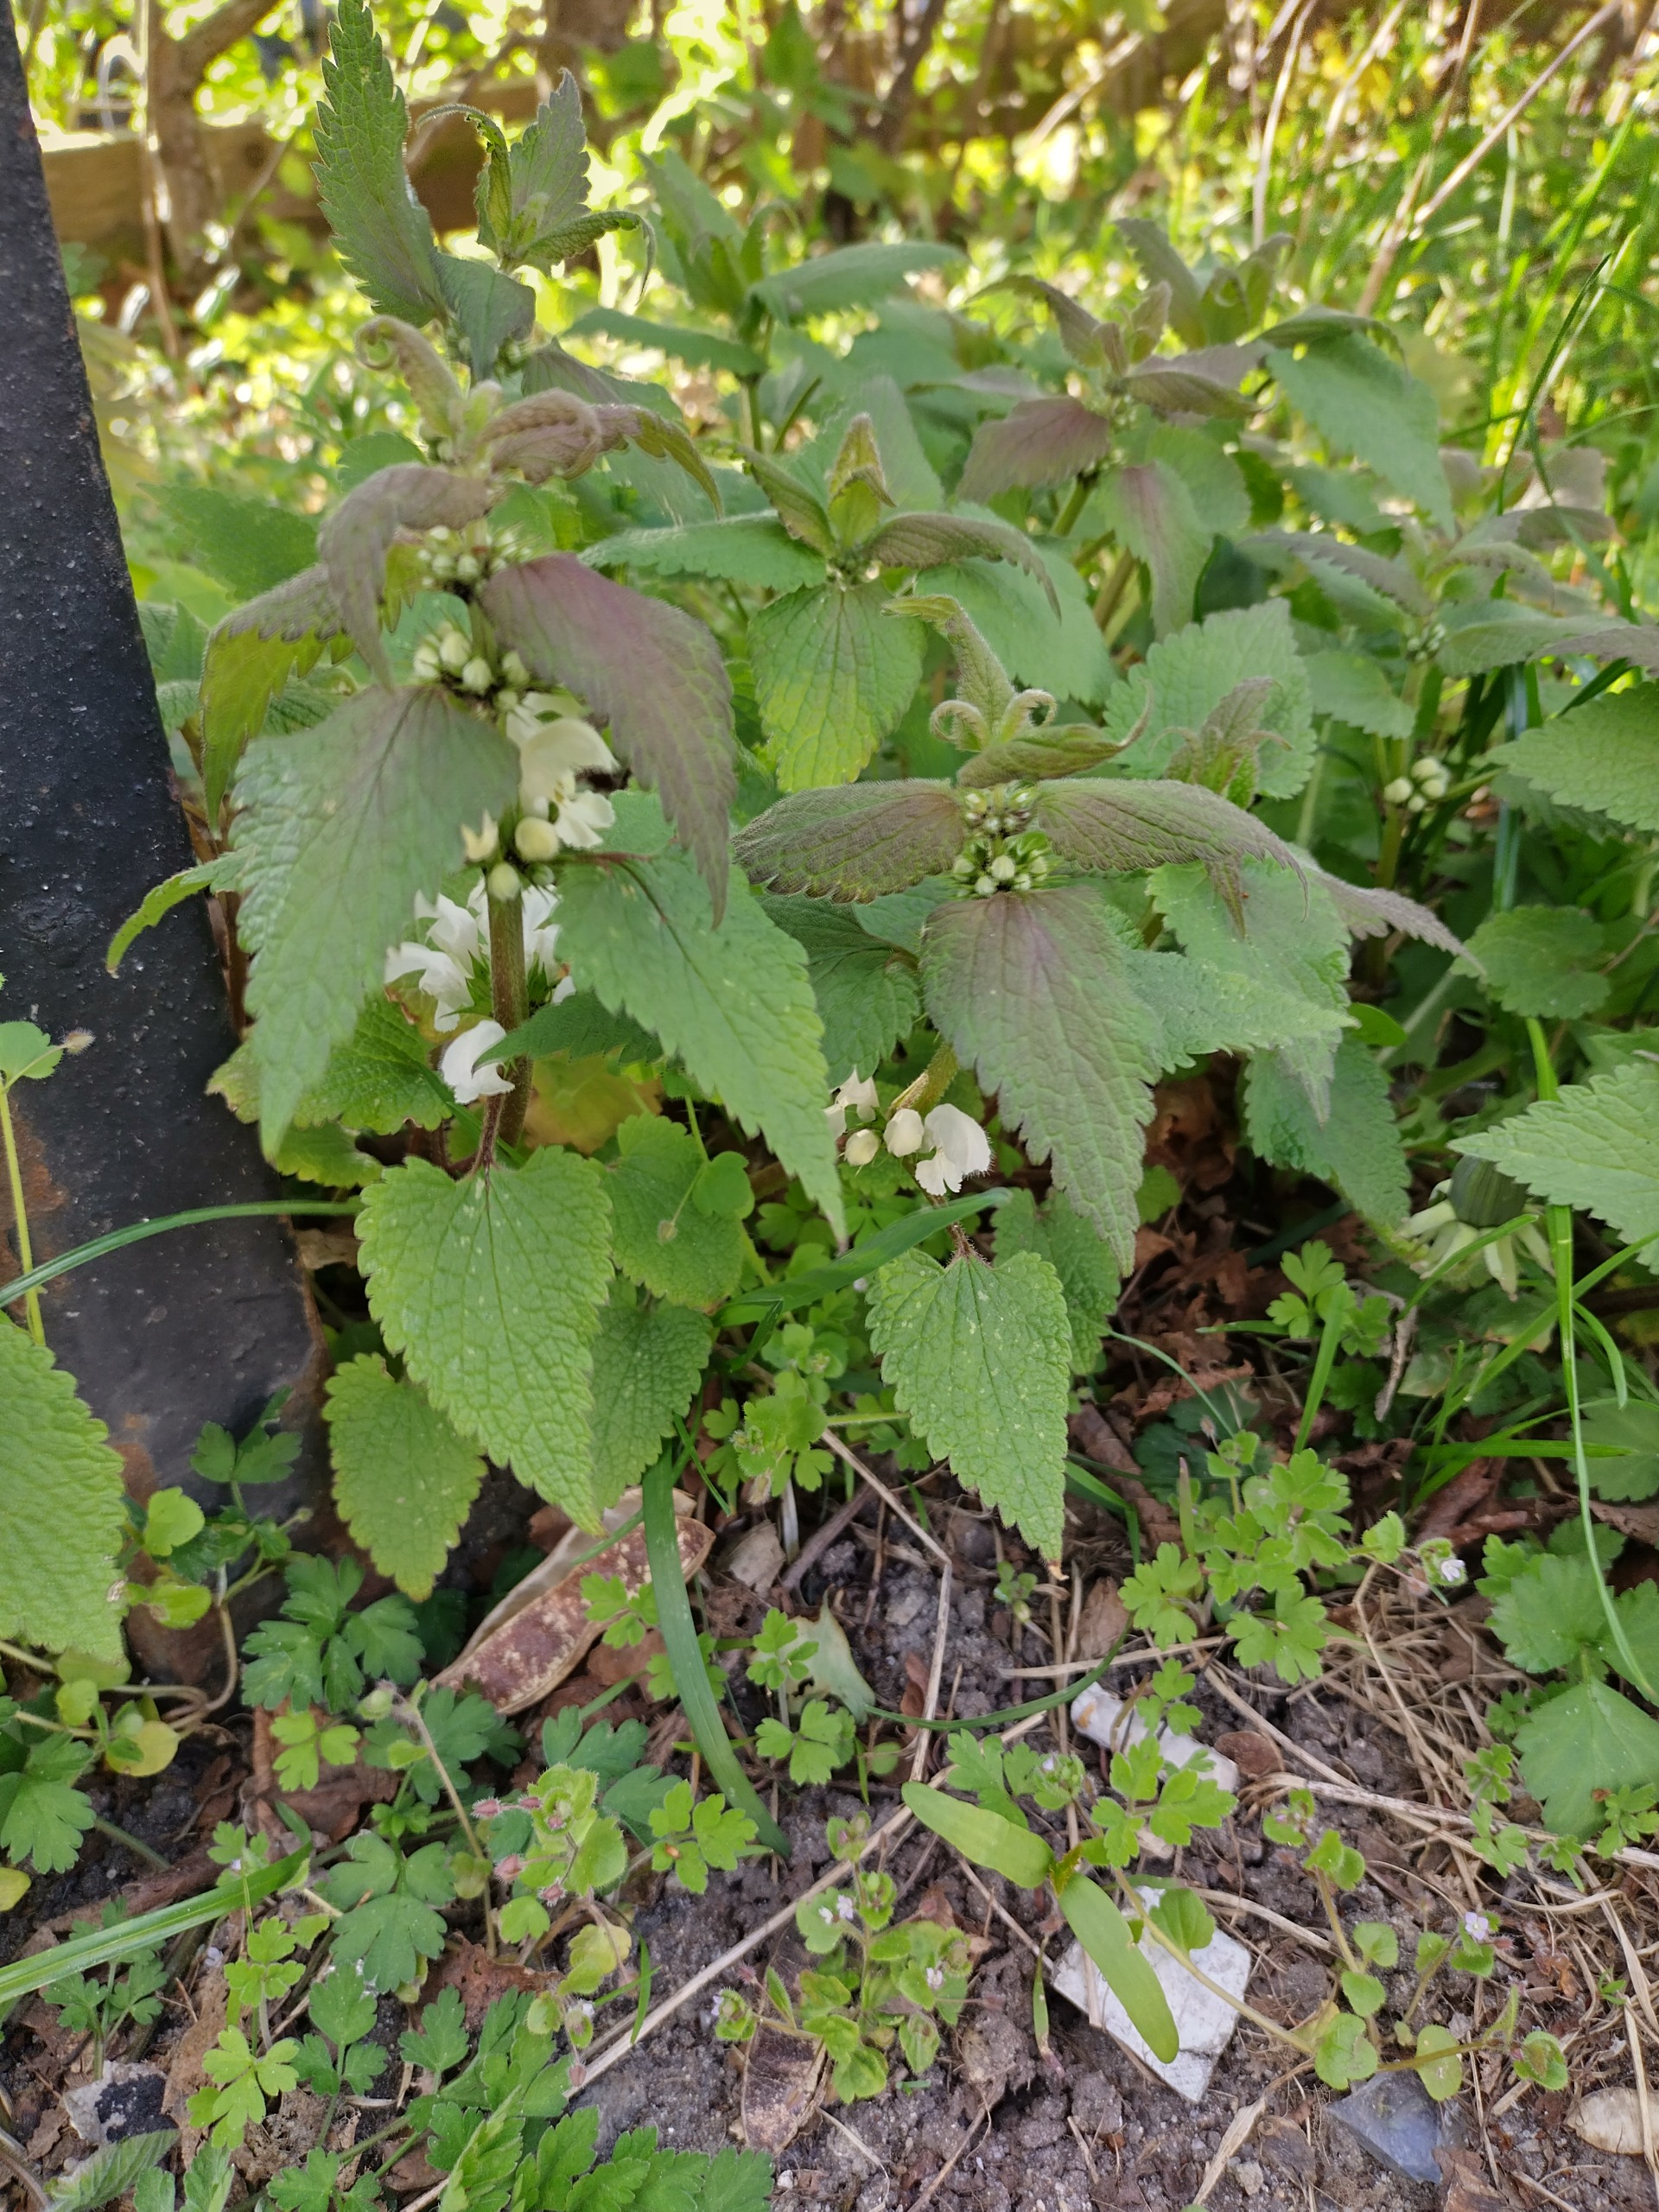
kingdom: Plantae
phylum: Tracheophyta
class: Magnoliopsida
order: Lamiales
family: Lamiaceae
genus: Lamium
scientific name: Lamium album
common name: Døvnælde
